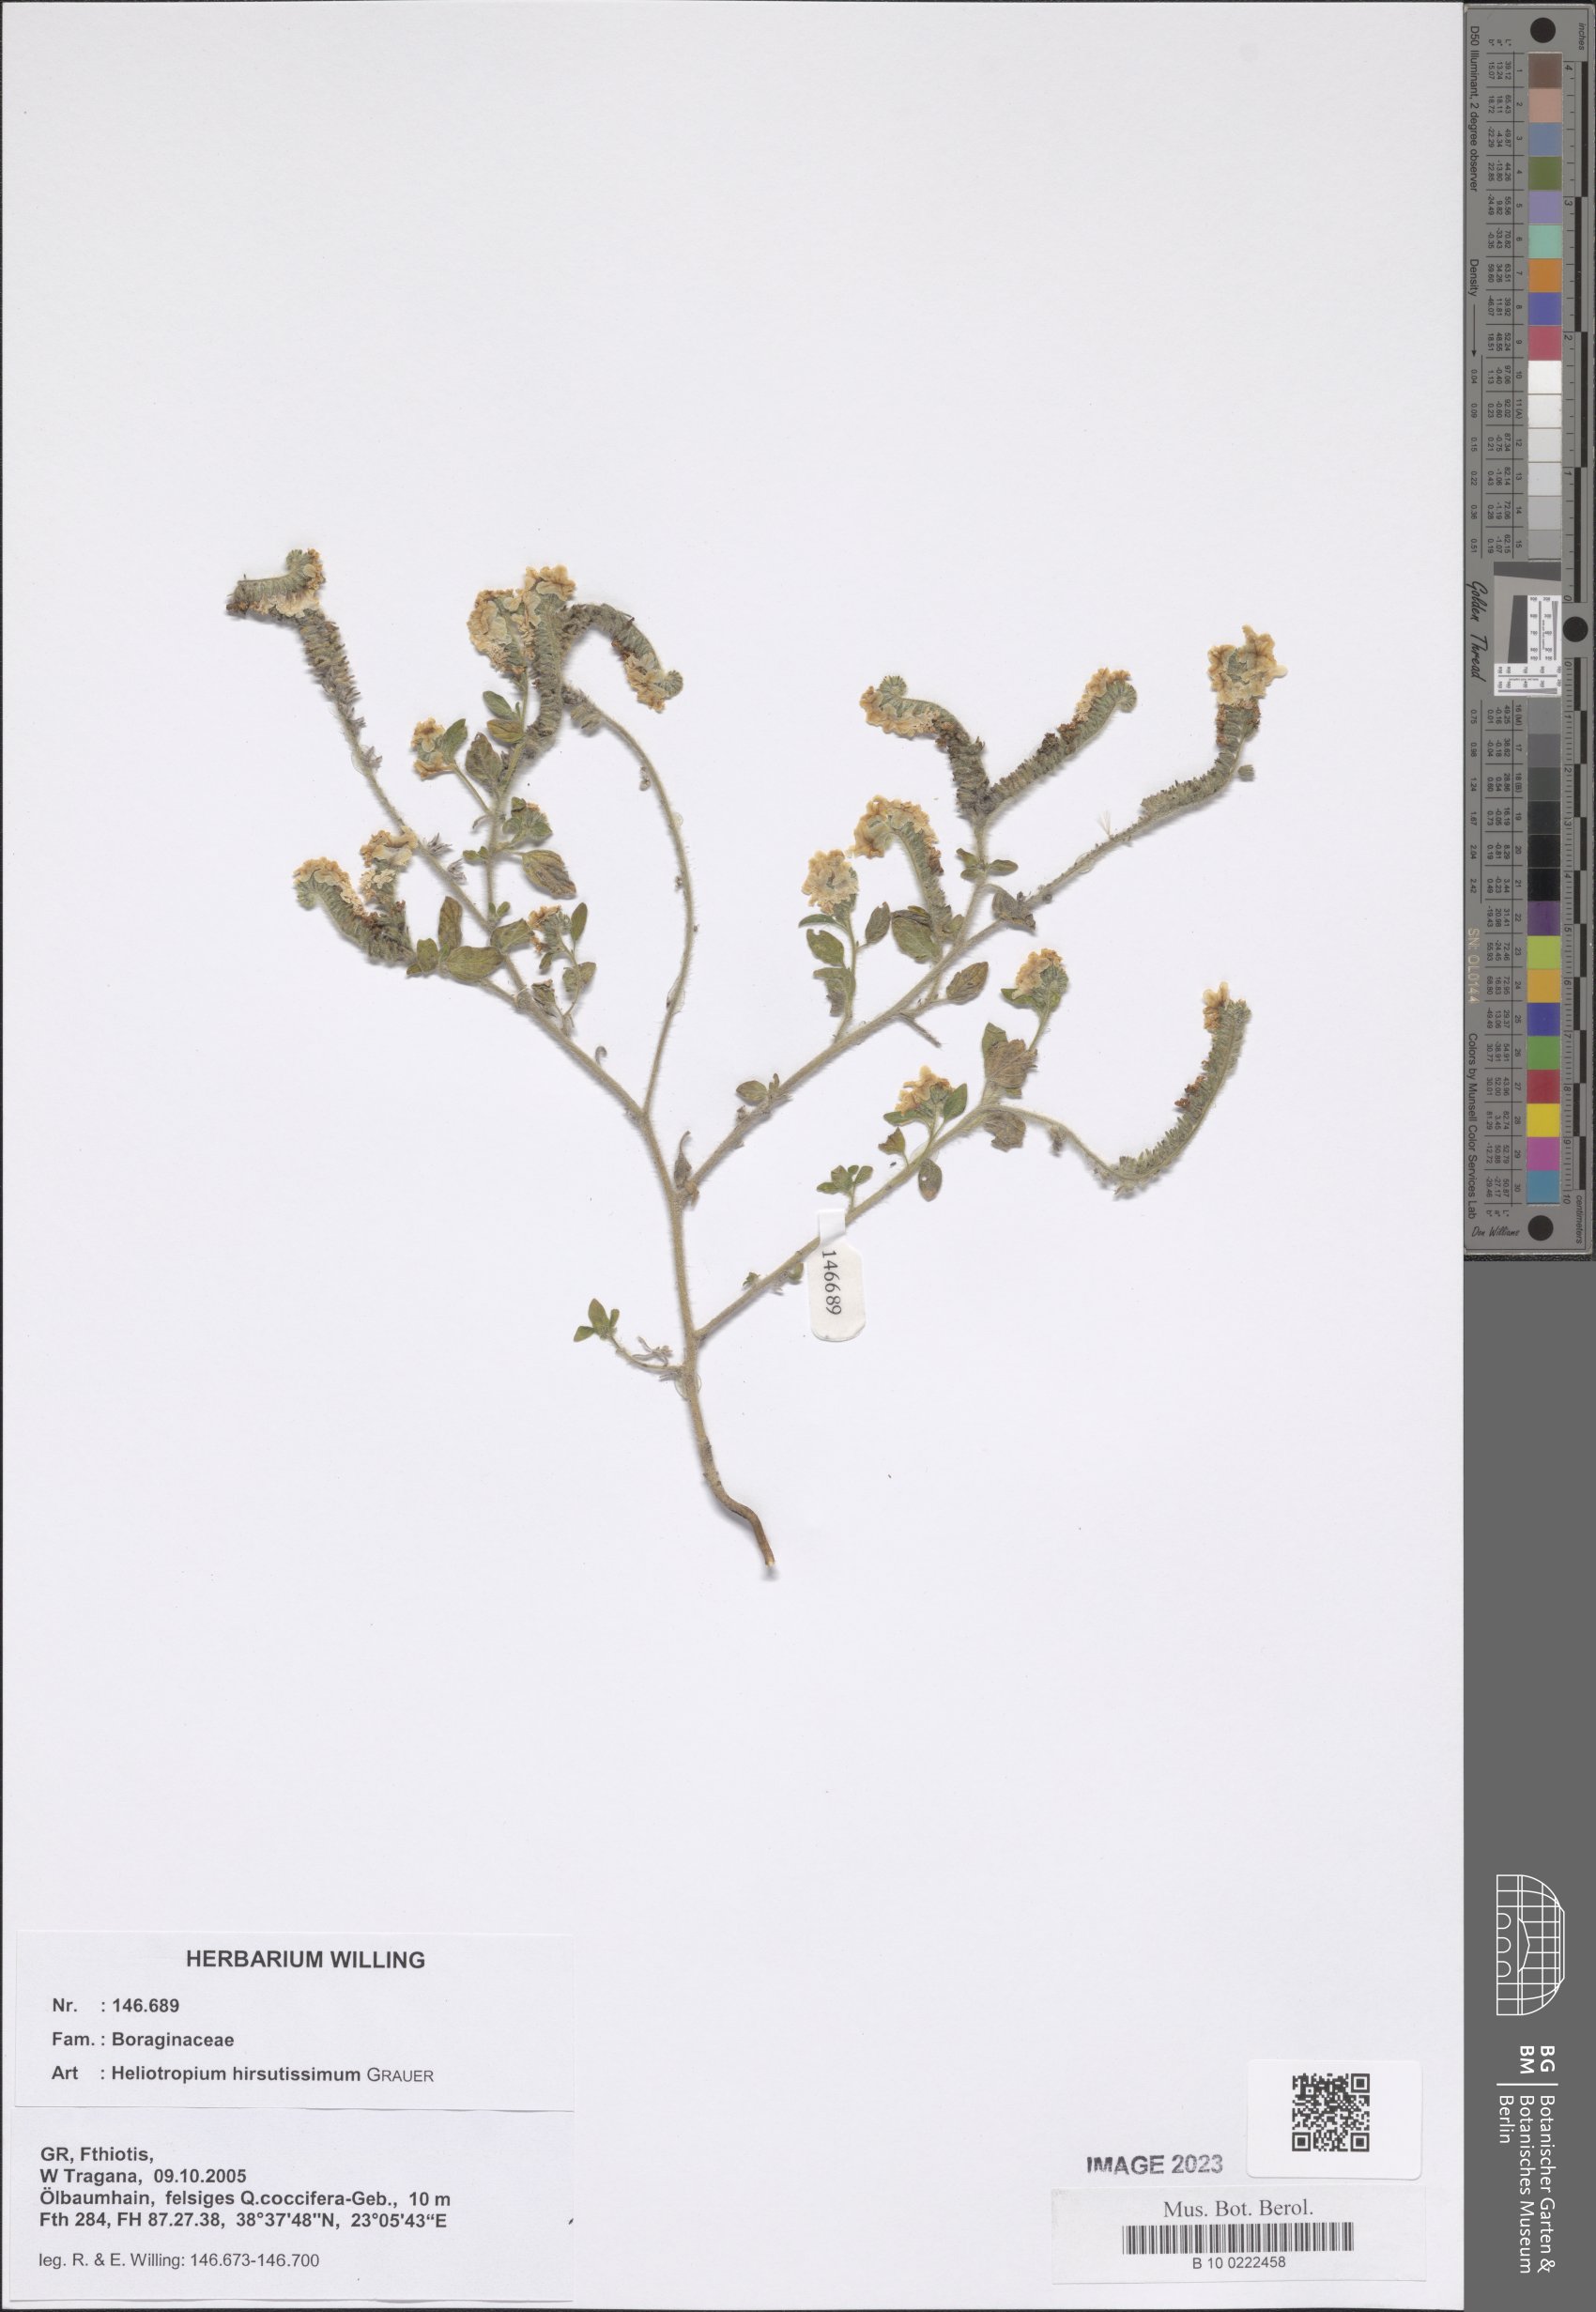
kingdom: Plantae
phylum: Tracheophyta
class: Magnoliopsida
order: Boraginales
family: Heliotropiaceae
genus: Heliotropium
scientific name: Heliotropium hirsutissimum
